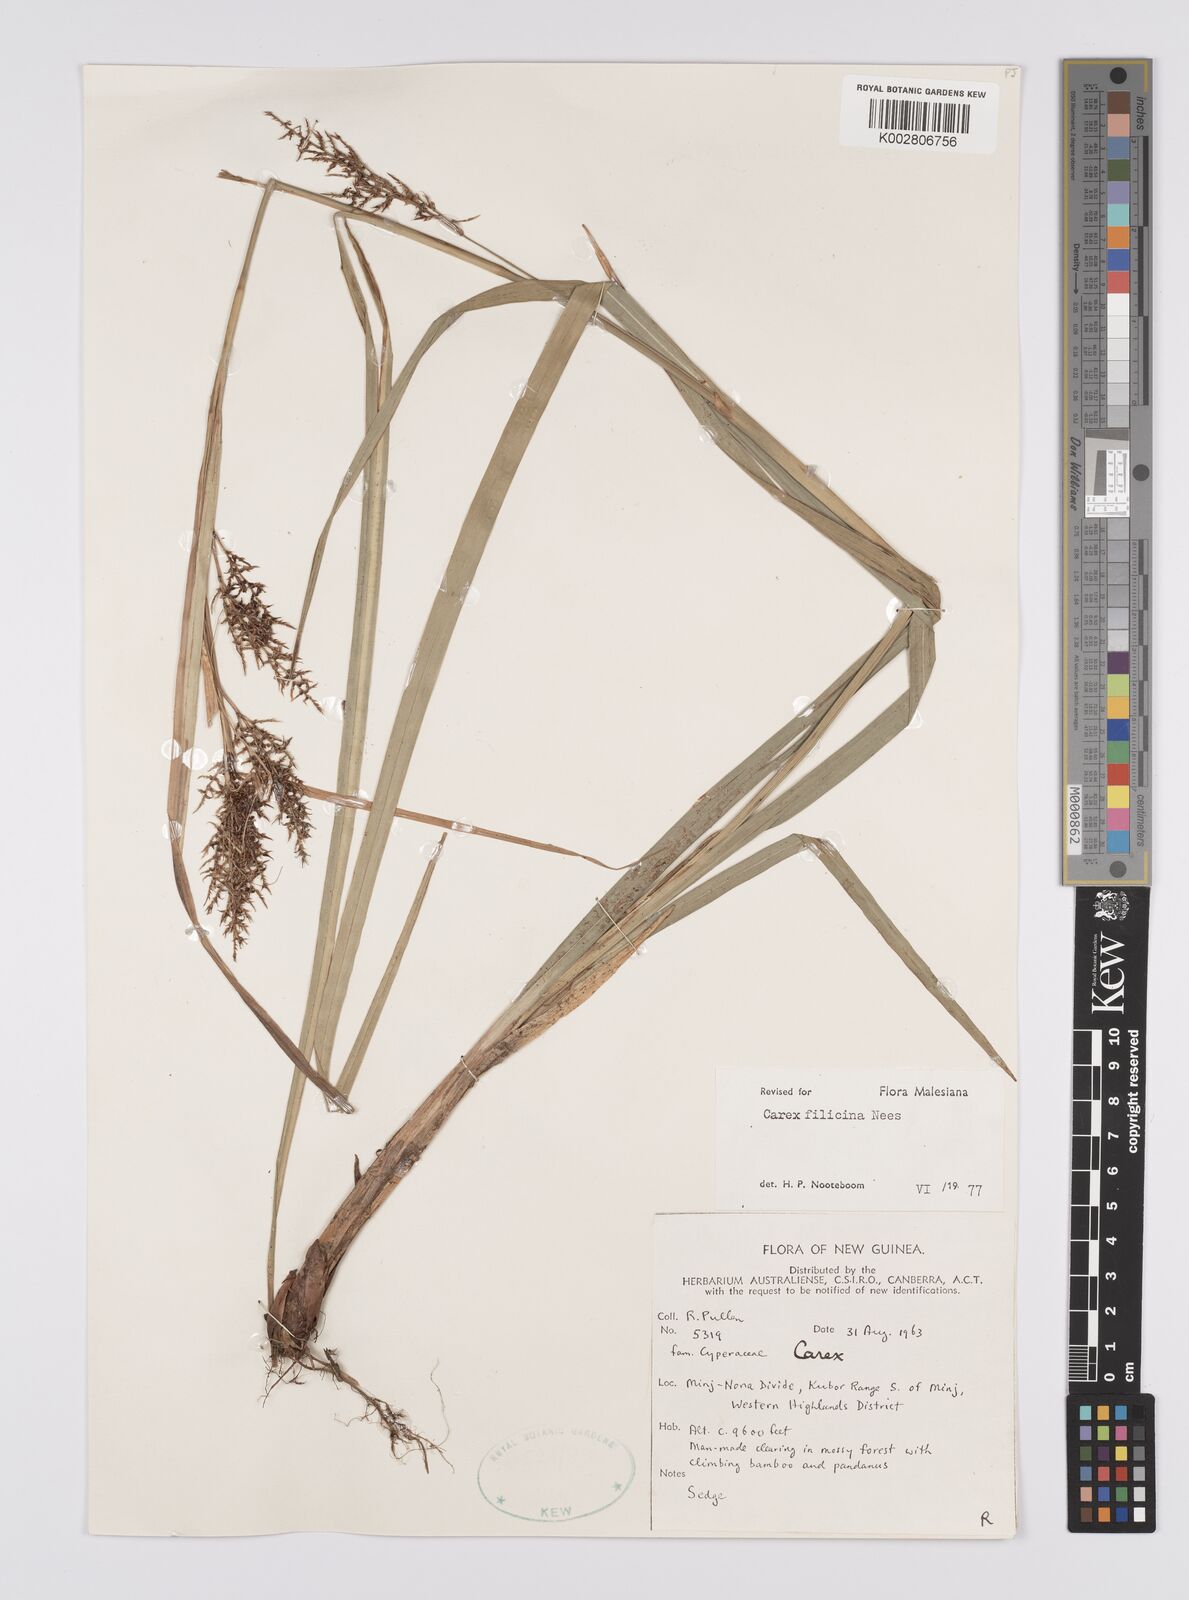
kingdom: Plantae
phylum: Tracheophyta
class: Liliopsida
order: Poales
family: Cyperaceae
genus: Carex
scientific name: Carex filicina
